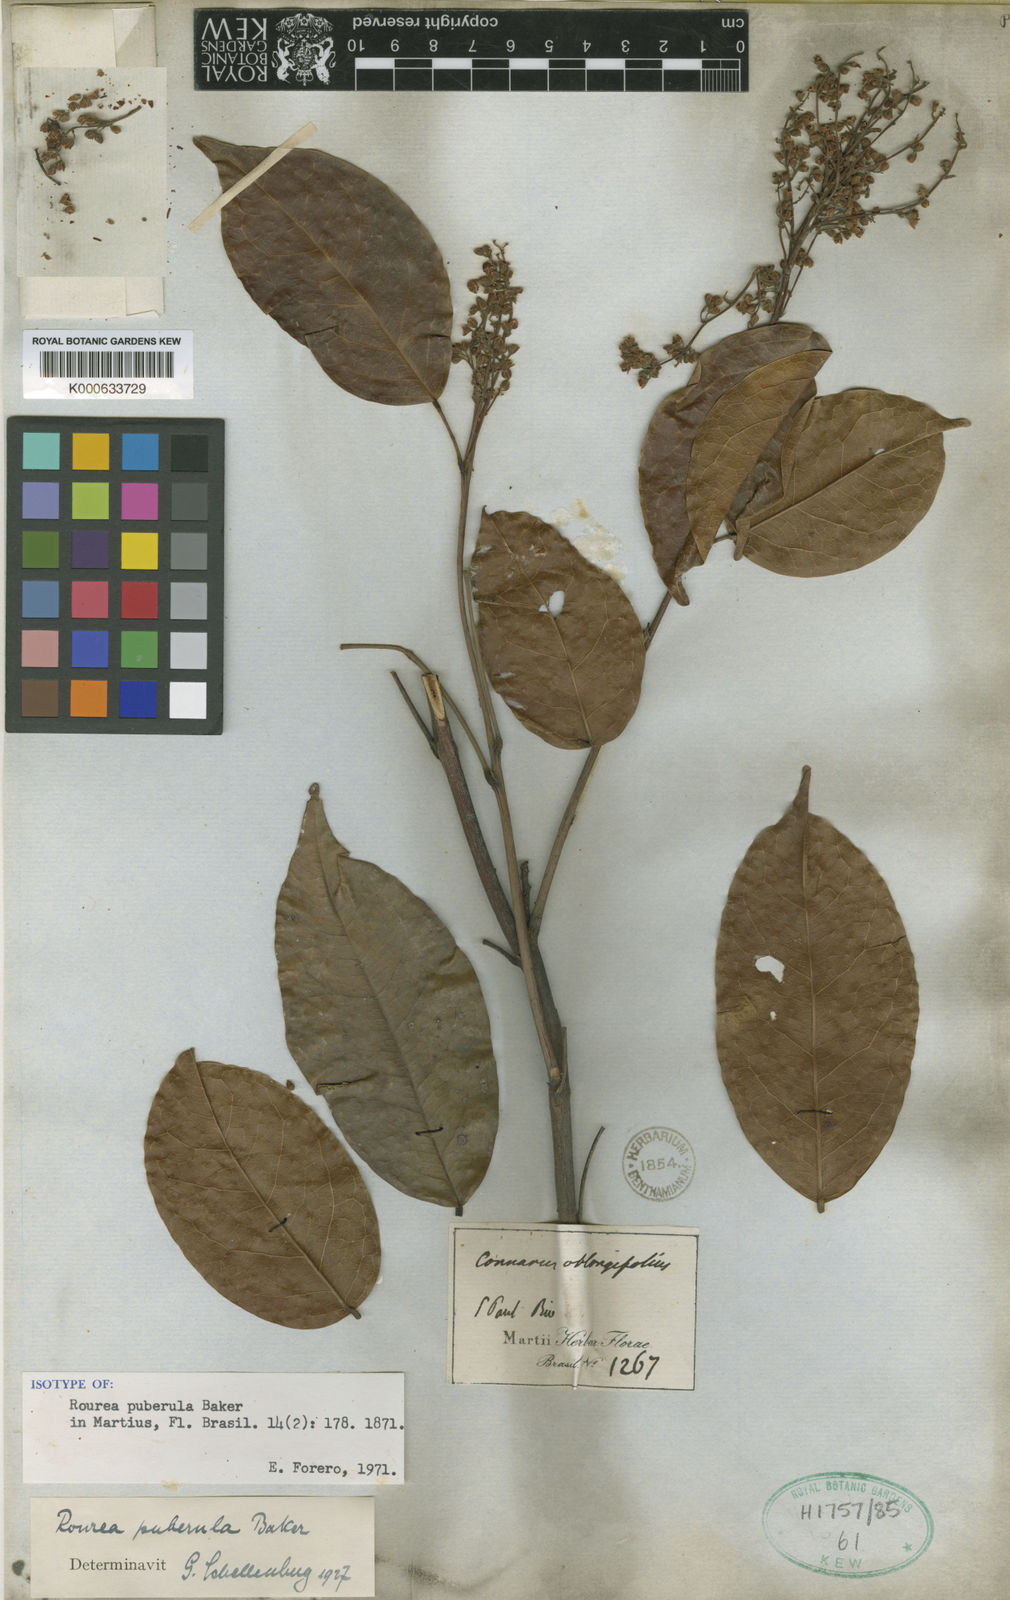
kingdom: Plantae
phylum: Tracheophyta
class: Magnoliopsida
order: Oxalidales
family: Connaraceae
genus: Rourea
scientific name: Rourea puberula
